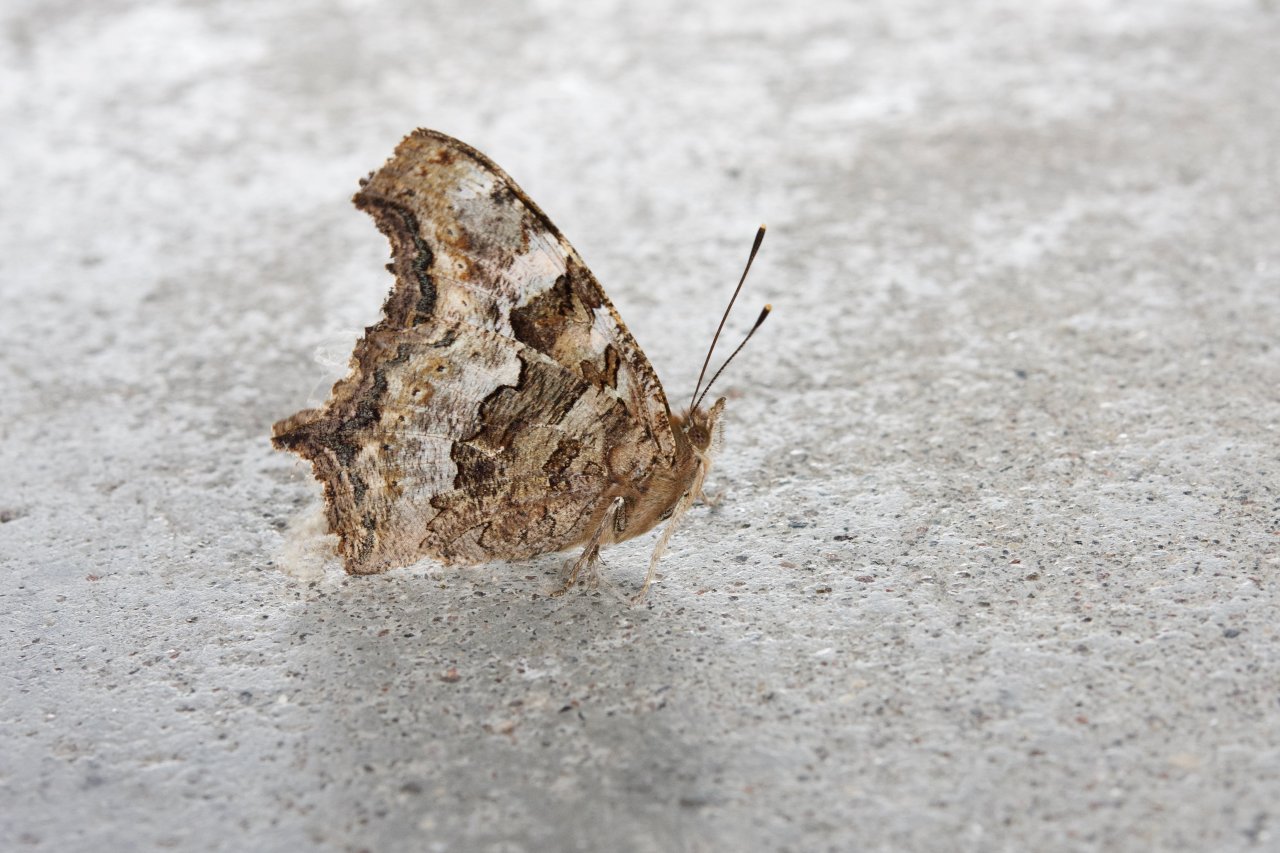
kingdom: Animalia
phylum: Arthropoda
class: Insecta
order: Lepidoptera
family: Nymphalidae
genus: Polygonia
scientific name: Polygonia vaualbum
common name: Compton Tortoiseshell
